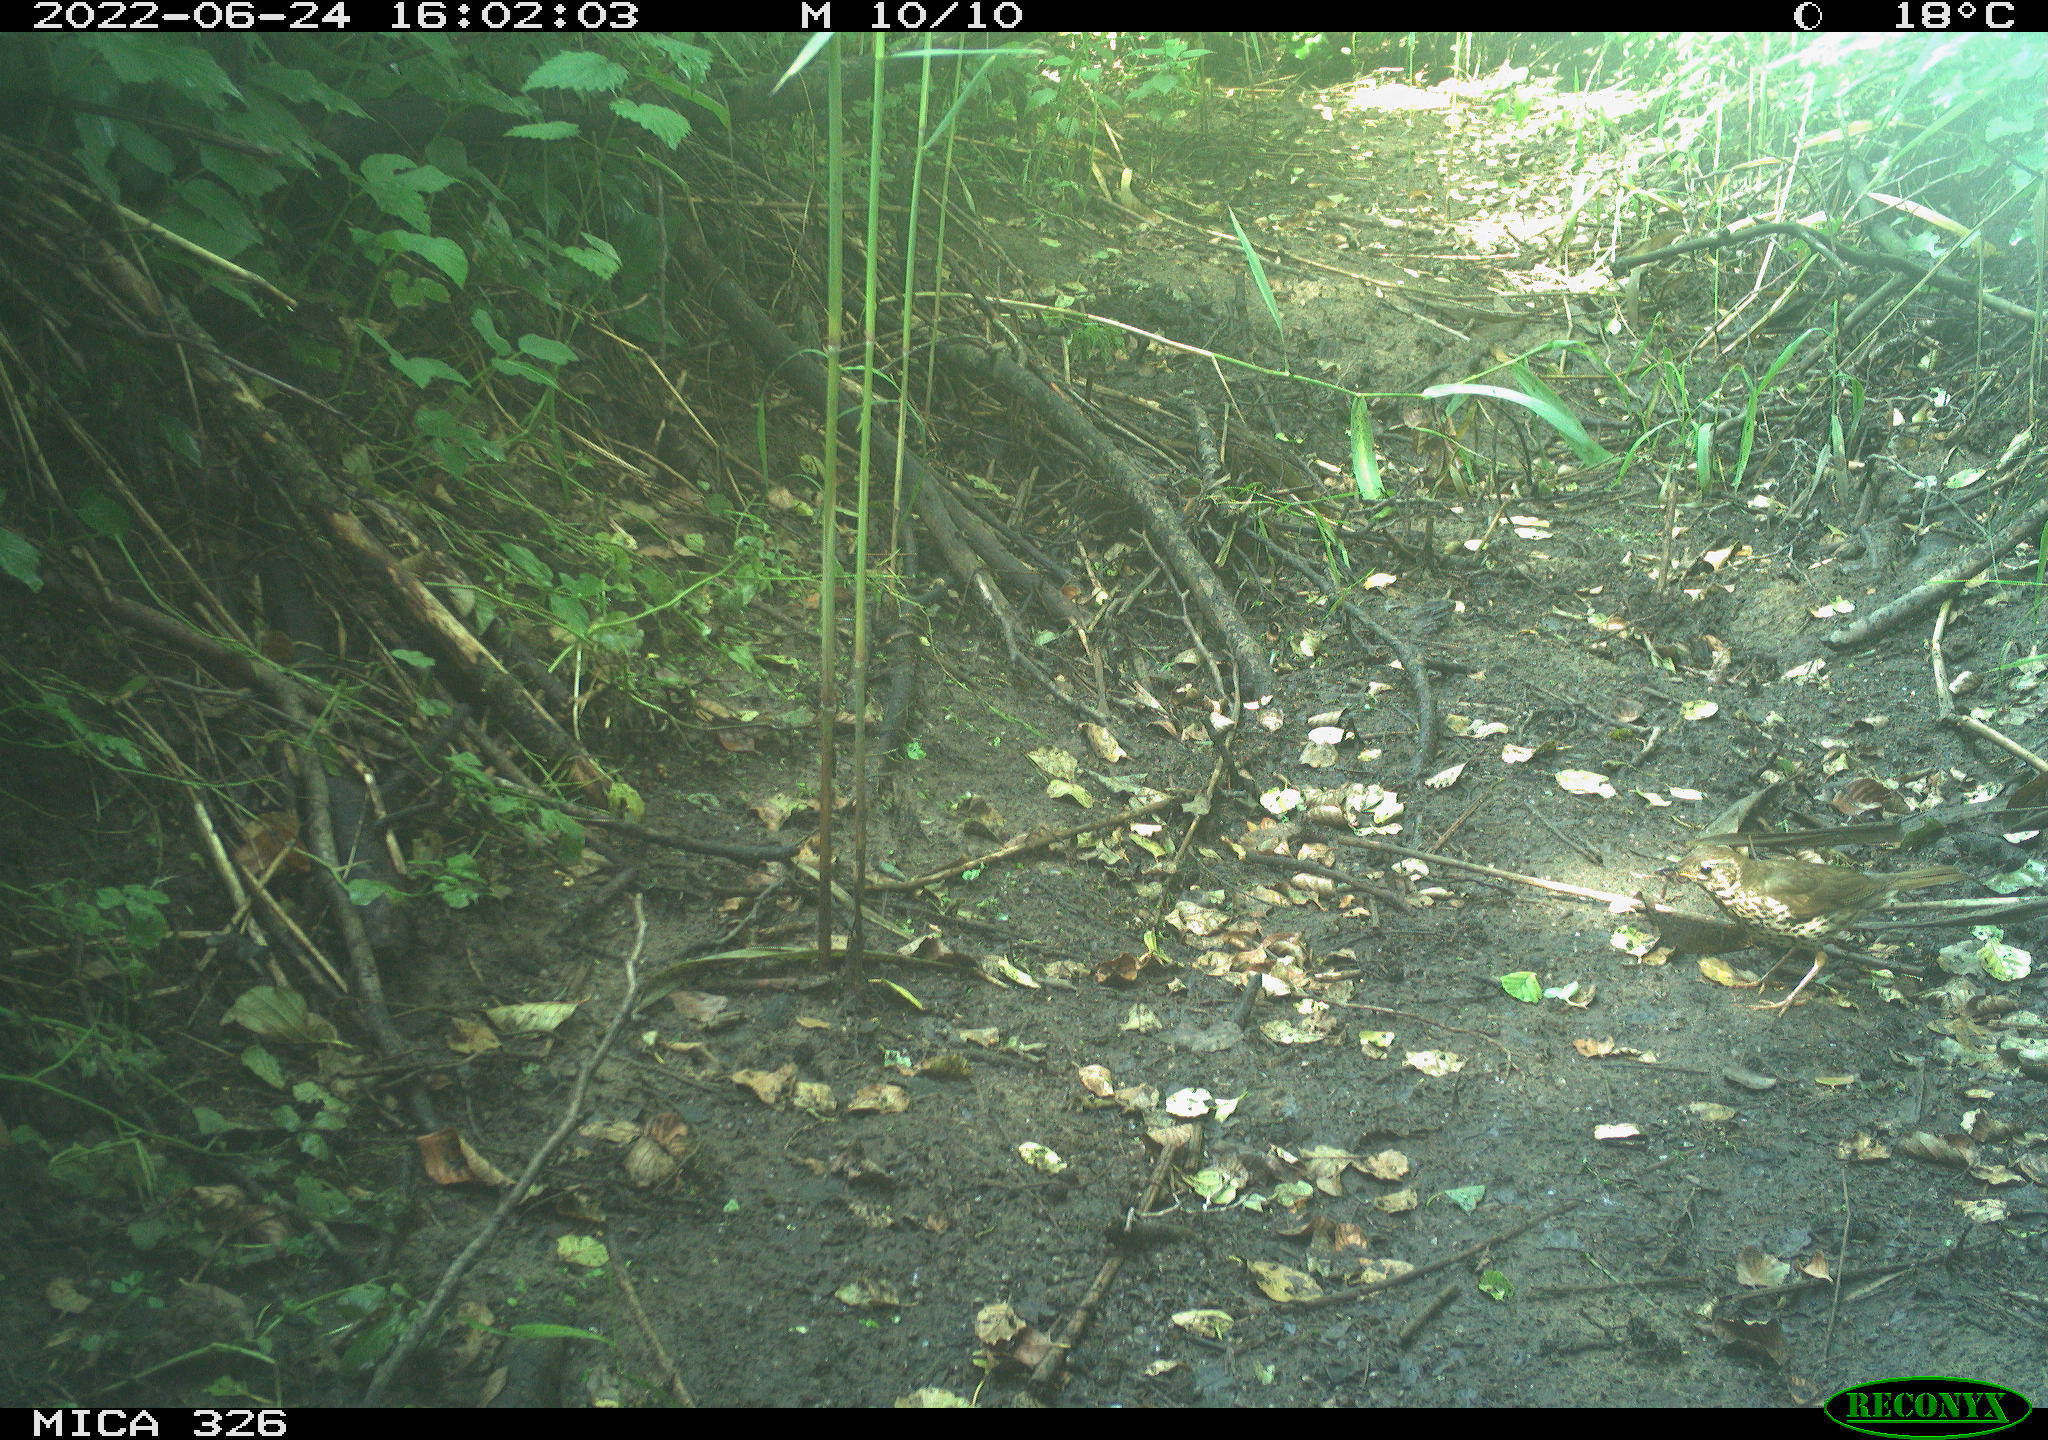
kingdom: Animalia
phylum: Chordata
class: Aves
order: Passeriformes
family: Turdidae
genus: Turdus
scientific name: Turdus philomelos
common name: Song thrush
